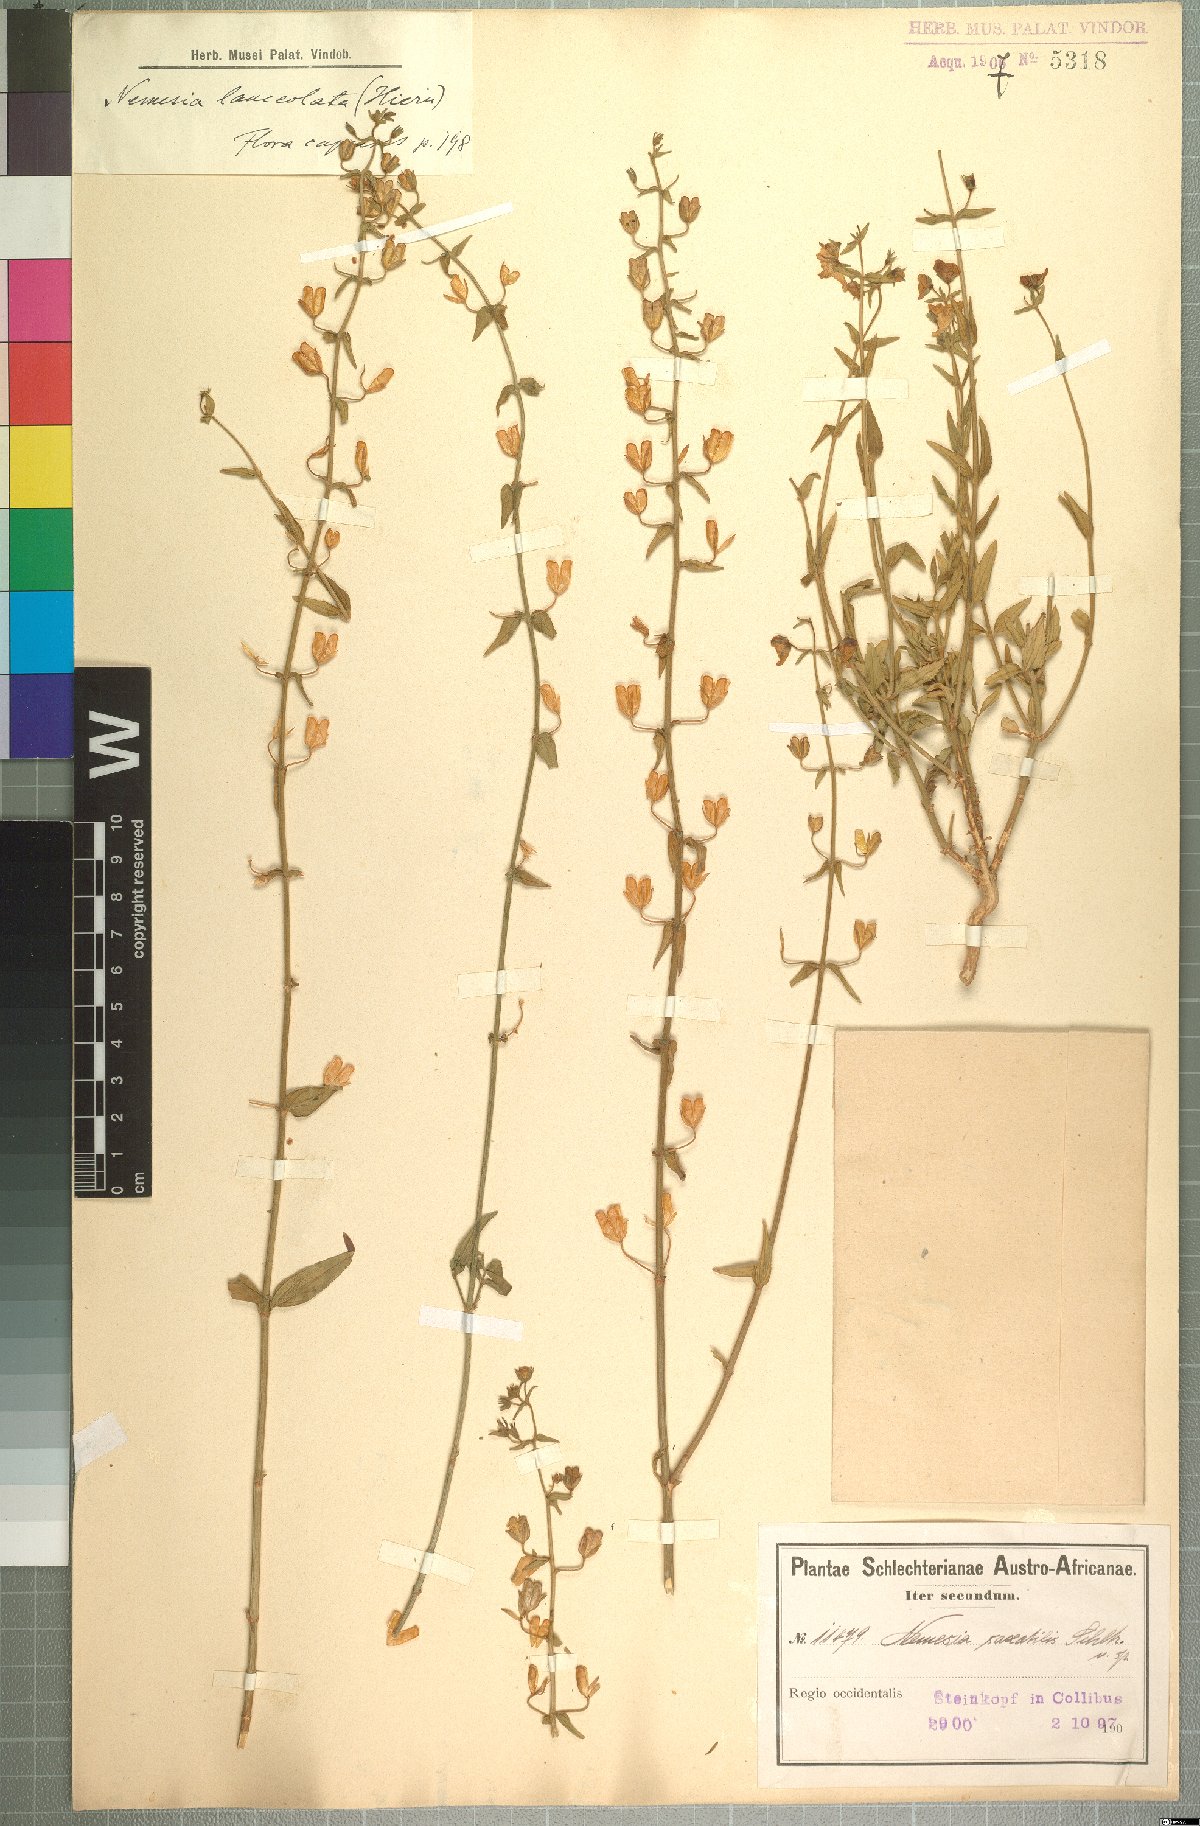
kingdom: Plantae
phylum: Tracheophyta
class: Magnoliopsida
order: Lamiales
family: Scrophulariaceae
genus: Nemesia
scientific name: Nemesia lanceolata
